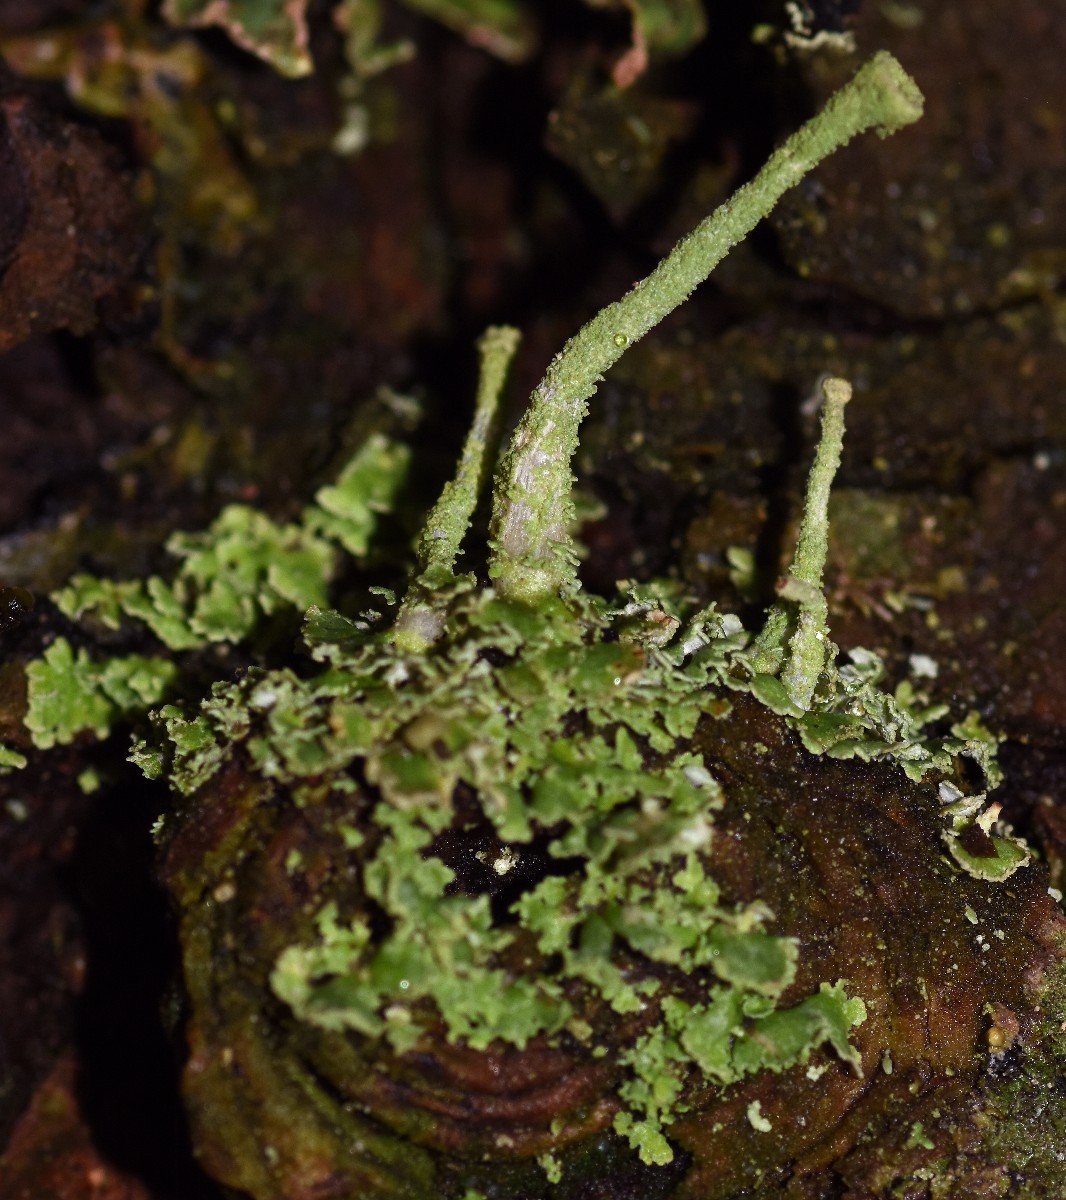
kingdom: Fungi
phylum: Ascomycota
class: Lecanoromycetes
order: Lecanorales
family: Cladoniaceae
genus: Cladonia
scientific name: Cladonia
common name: brungrøn bægerlav
